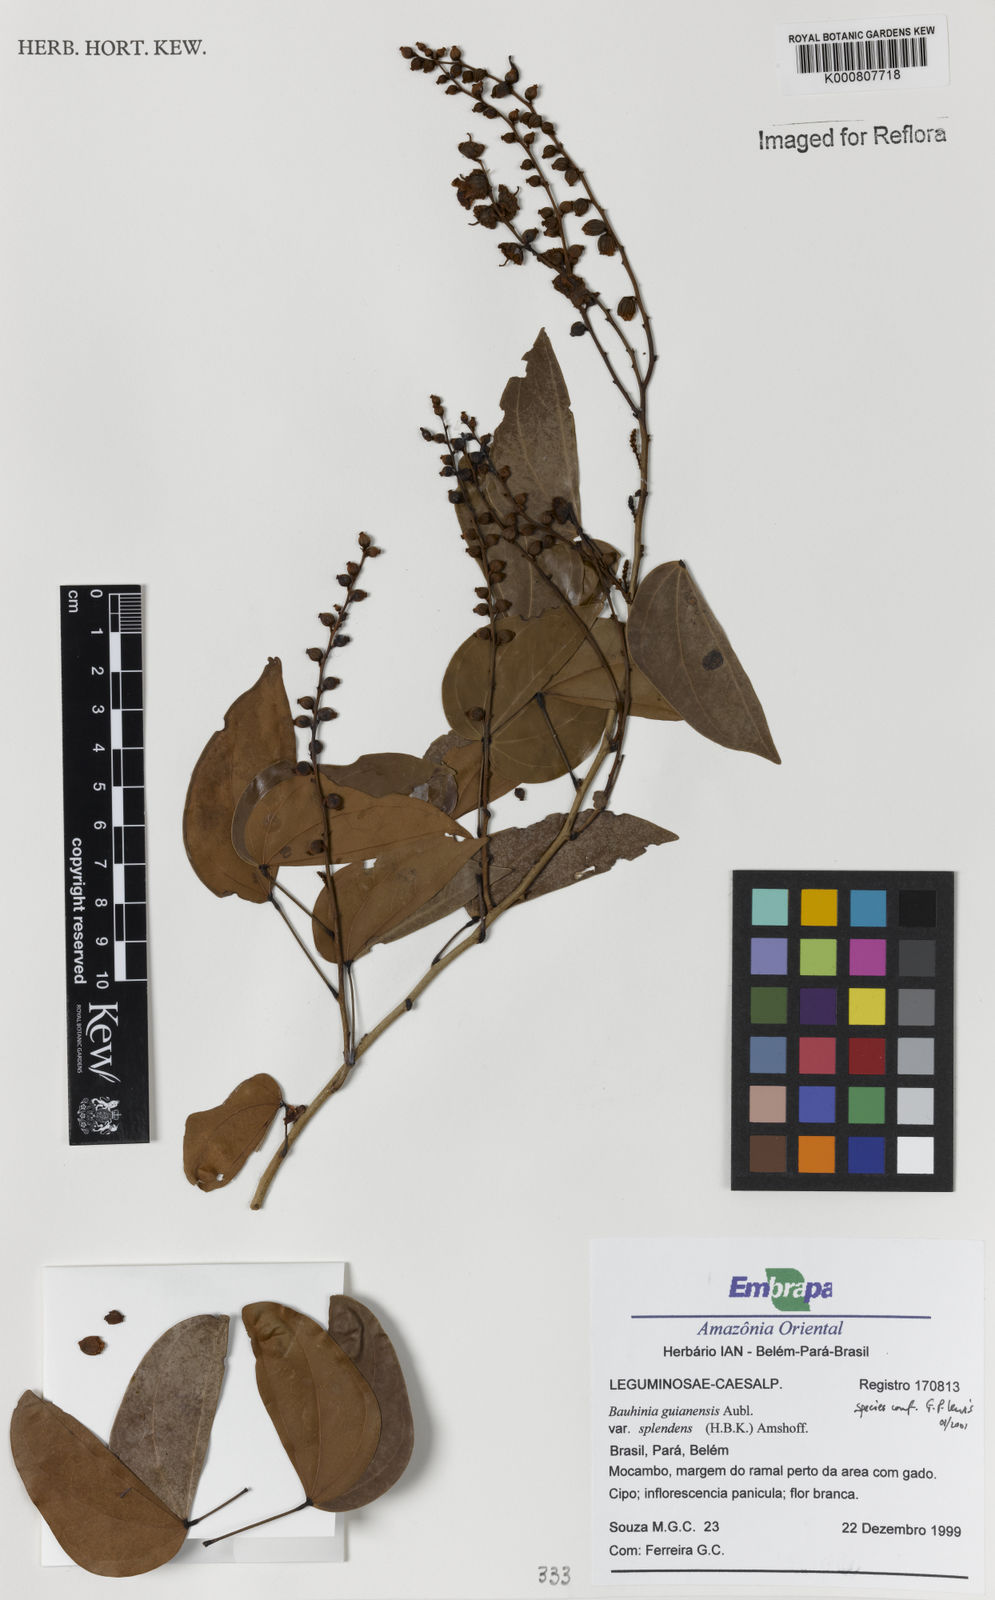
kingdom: Plantae
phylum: Tracheophyta
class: Magnoliopsida
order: Fabales
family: Fabaceae
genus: Schnella
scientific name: Schnella splendens
